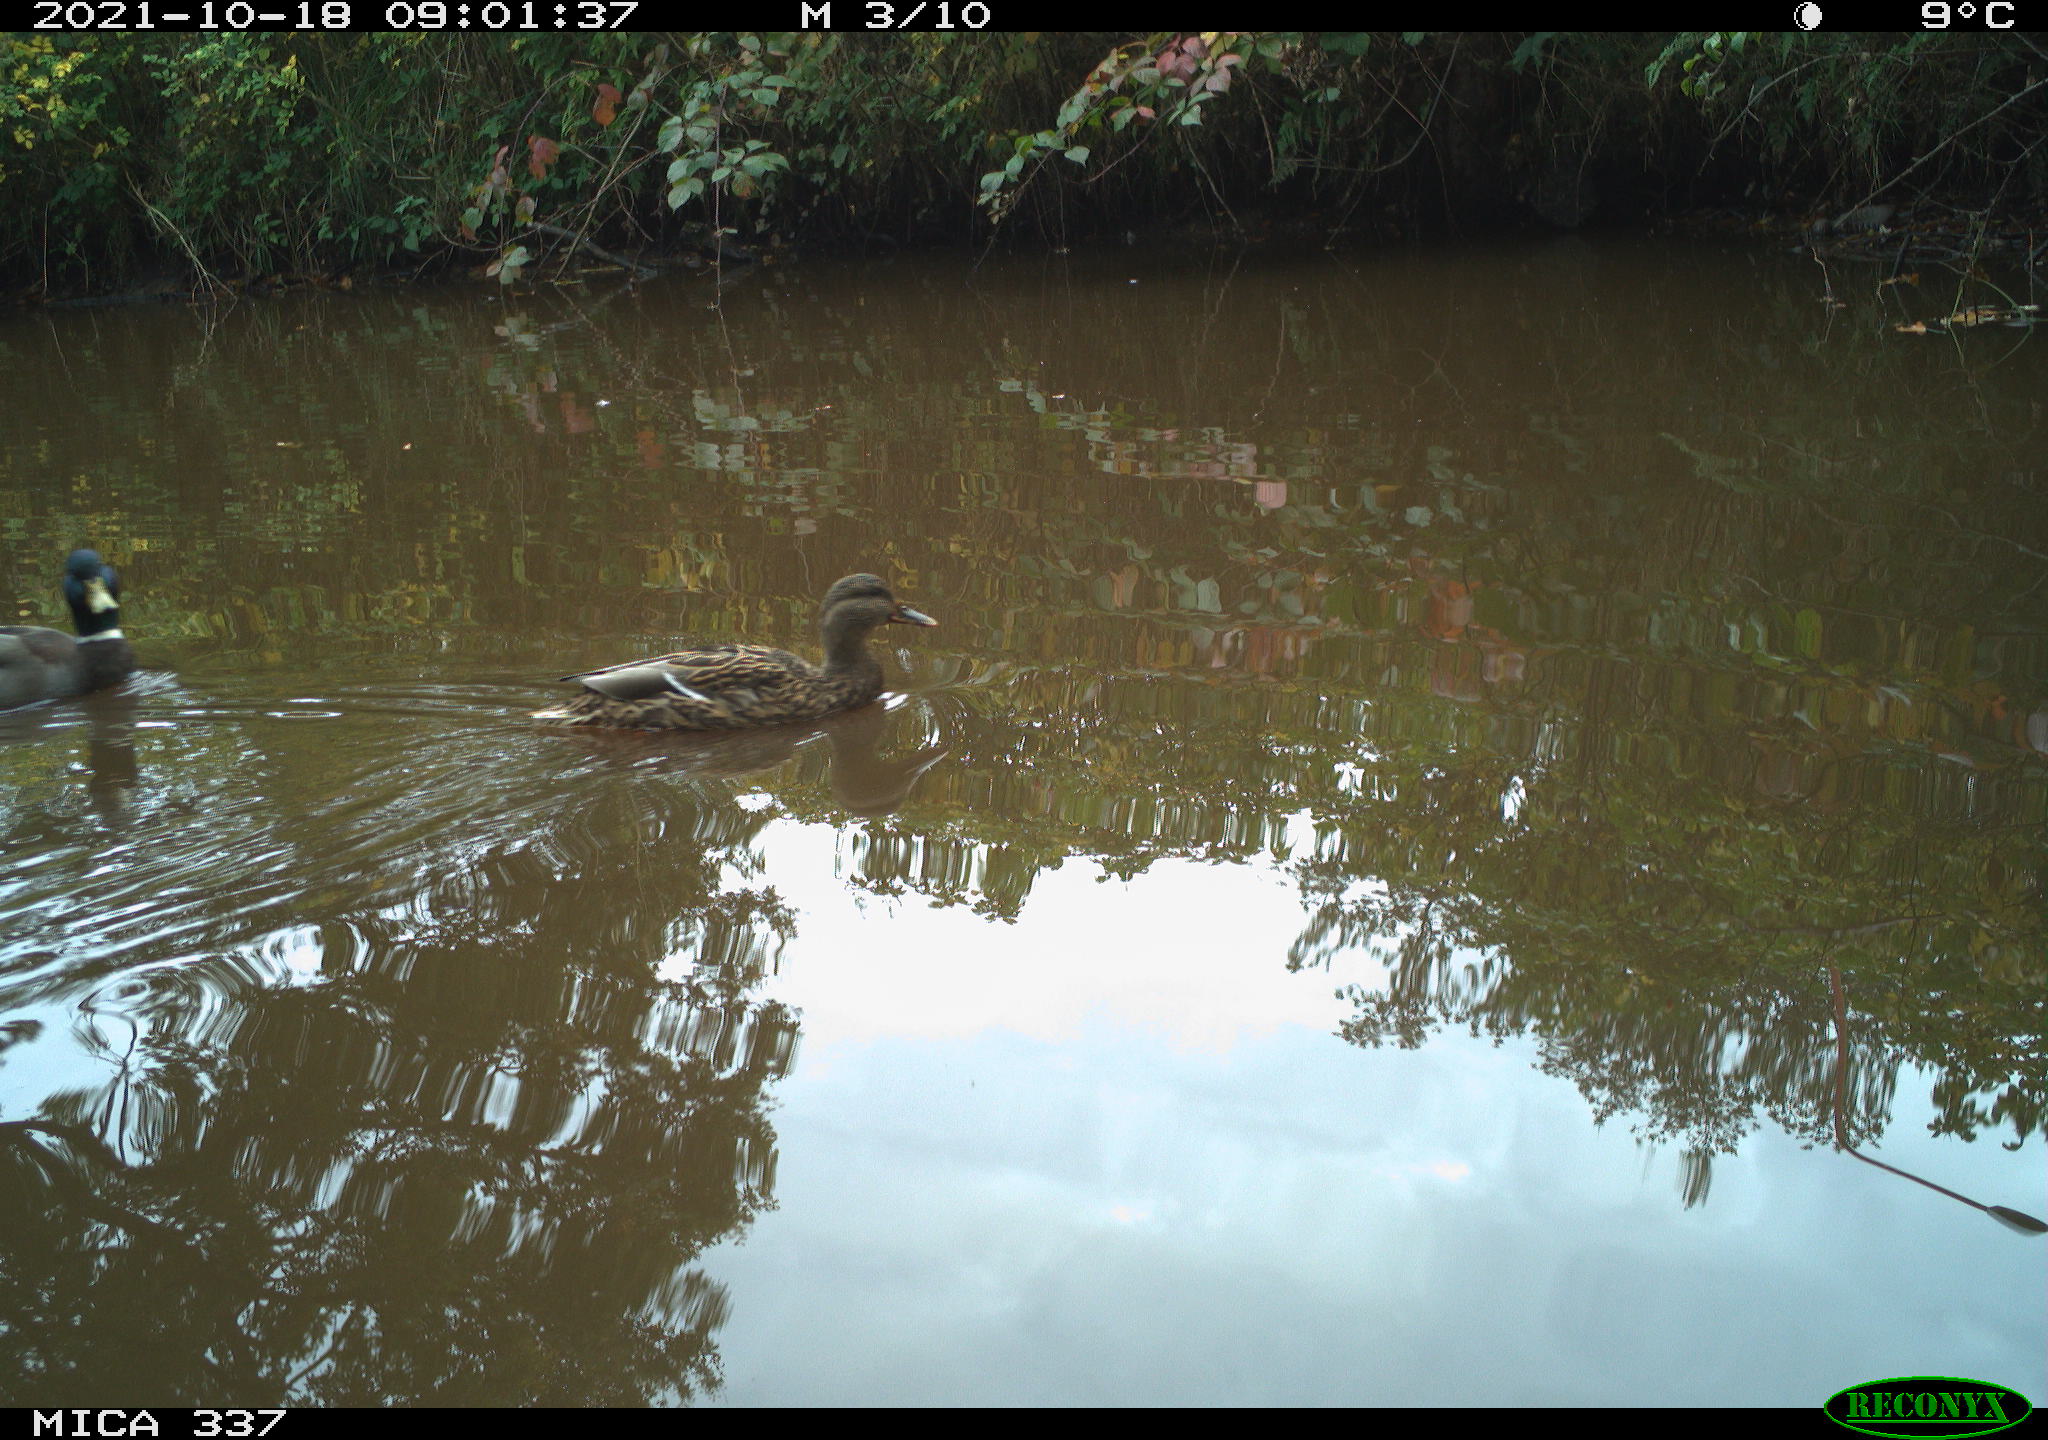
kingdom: Animalia
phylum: Chordata
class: Aves
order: Anseriformes
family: Anatidae
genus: Anas
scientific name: Anas platyrhynchos
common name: Mallard
